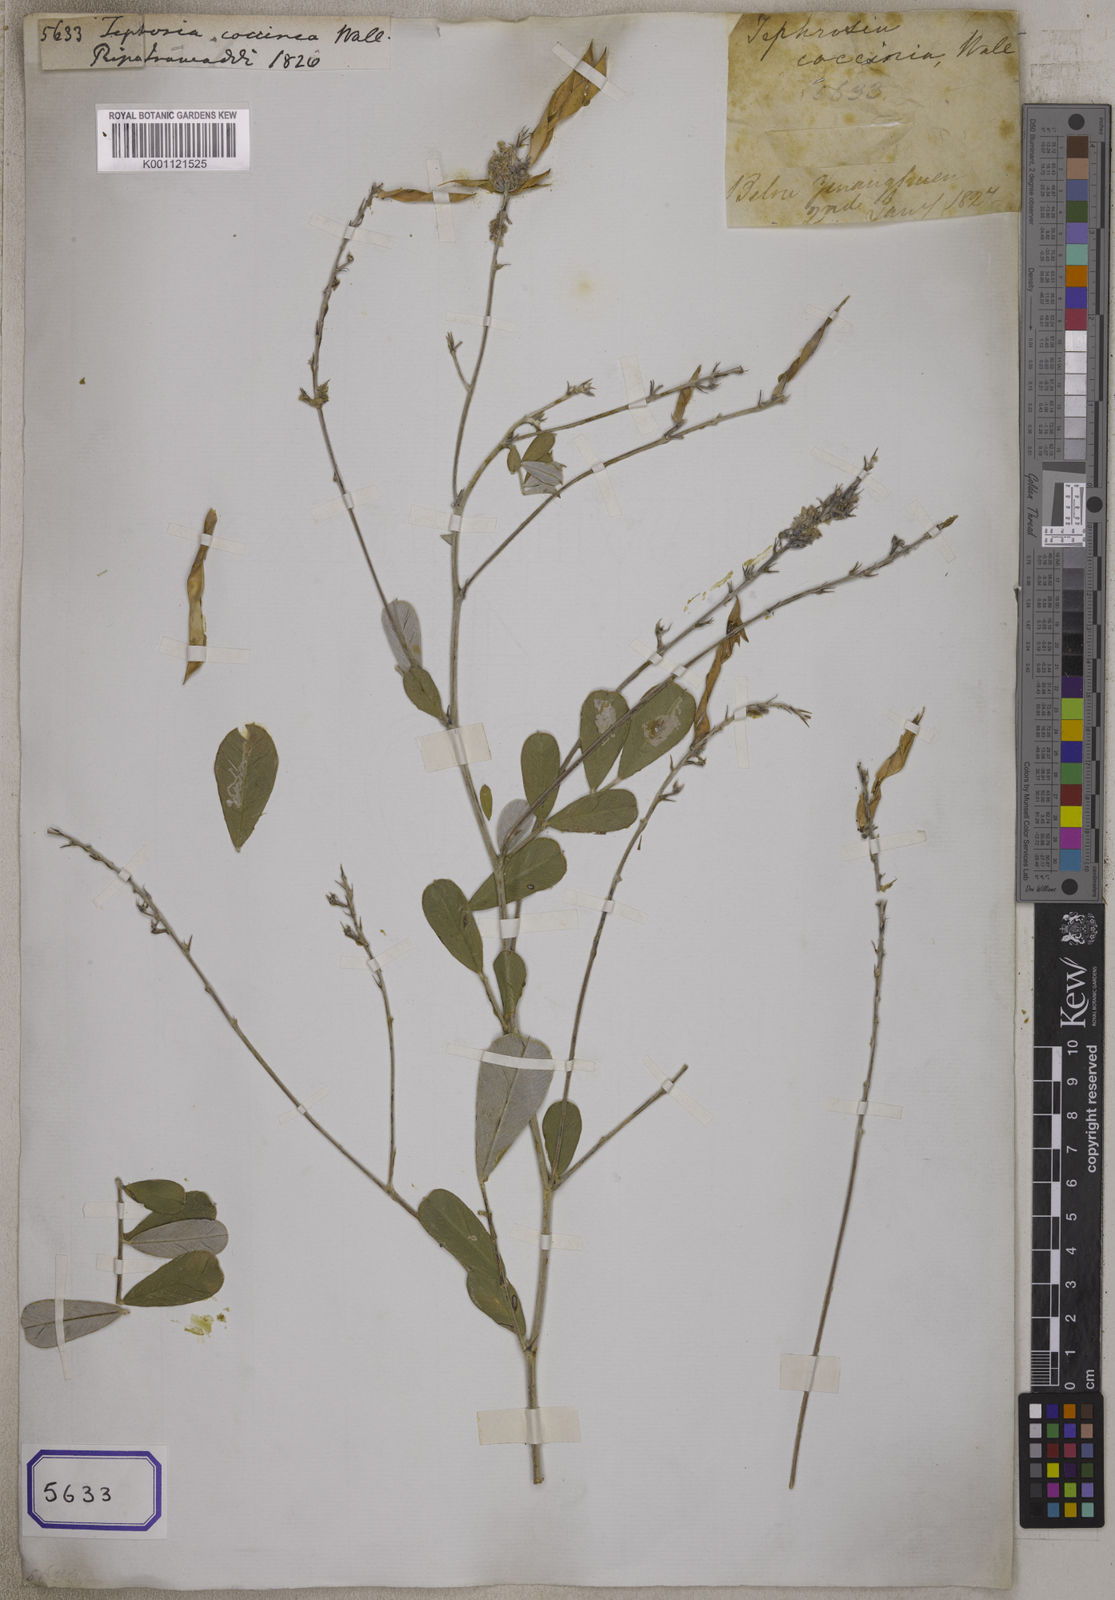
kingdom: Plantae
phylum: Tracheophyta
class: Magnoliopsida
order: Fabales
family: Fabaceae
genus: Tephrosia
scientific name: Tephrosia coccinea
